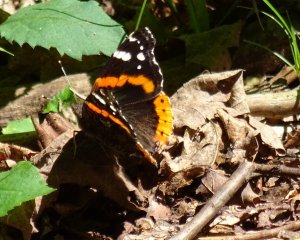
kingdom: Animalia
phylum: Arthropoda
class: Insecta
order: Lepidoptera
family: Nymphalidae
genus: Vanessa
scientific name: Vanessa atalanta
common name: Red Admiral
